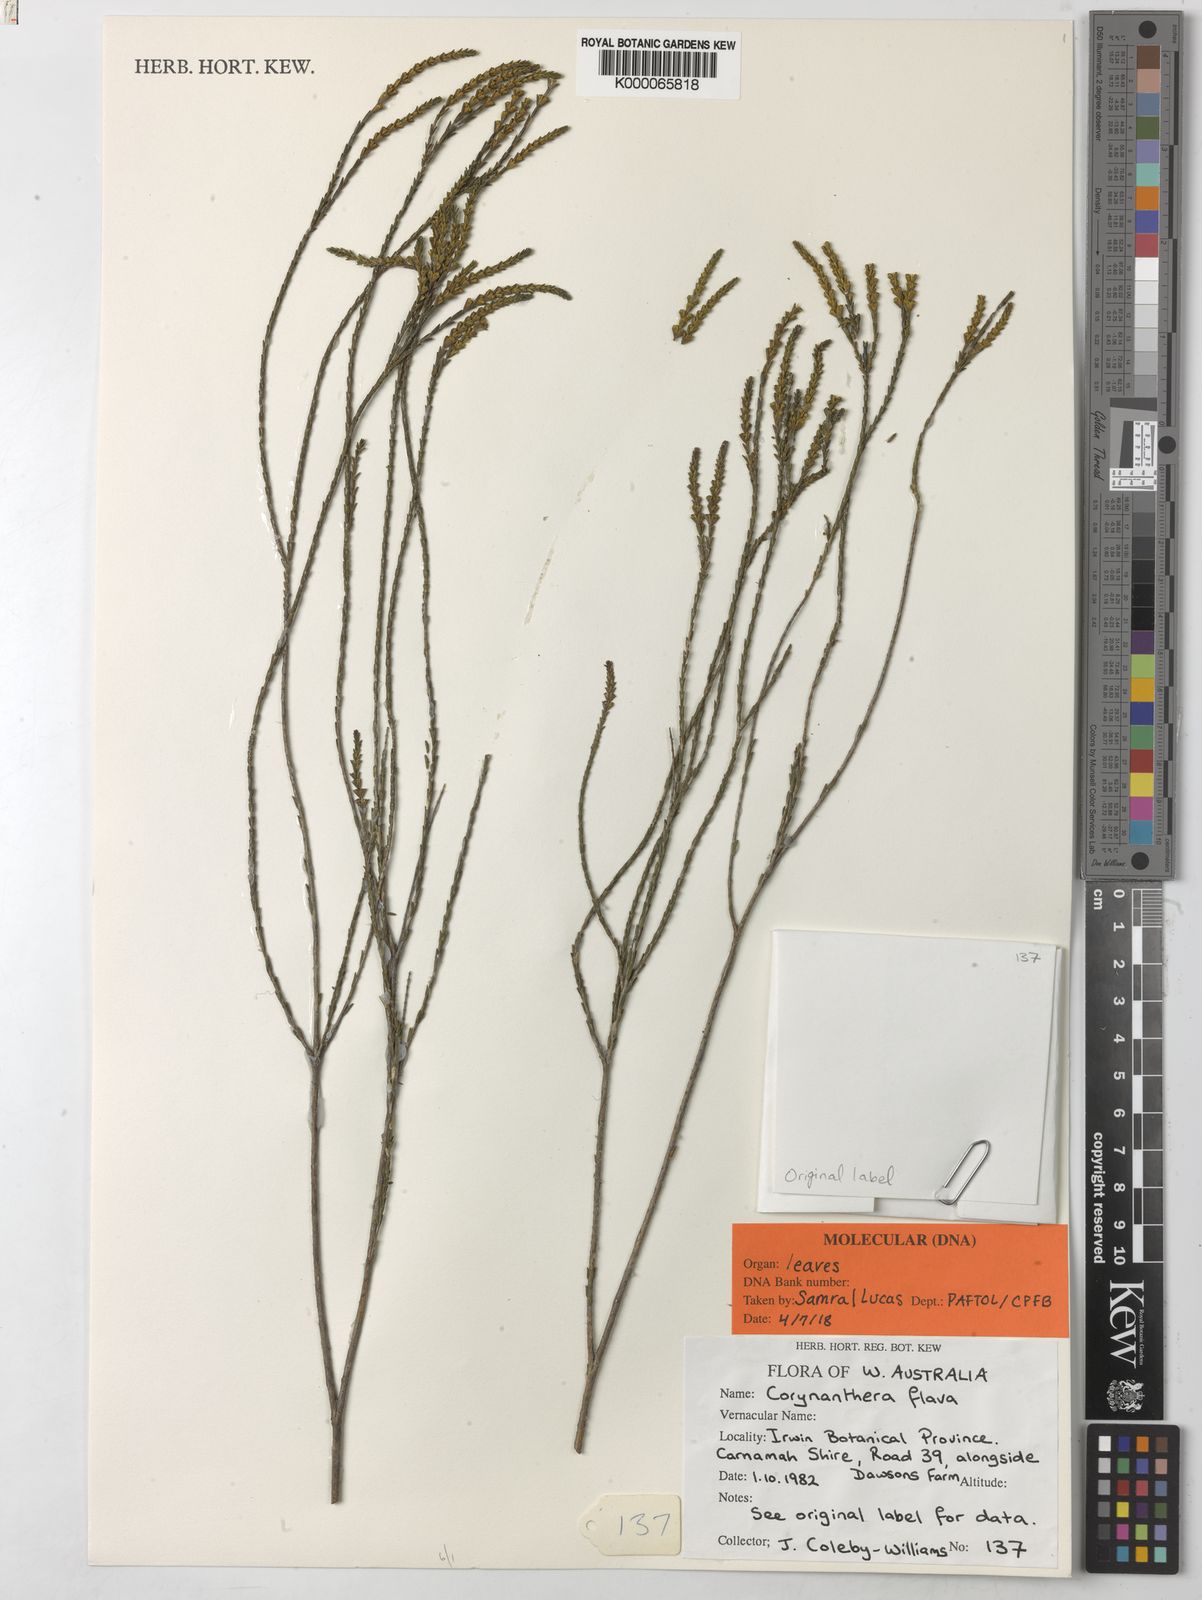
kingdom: Plantae
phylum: Tracheophyta
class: Magnoliopsida
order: Myrtales
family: Myrtaceae
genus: Micromyrtus
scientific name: Micromyrtus flava
